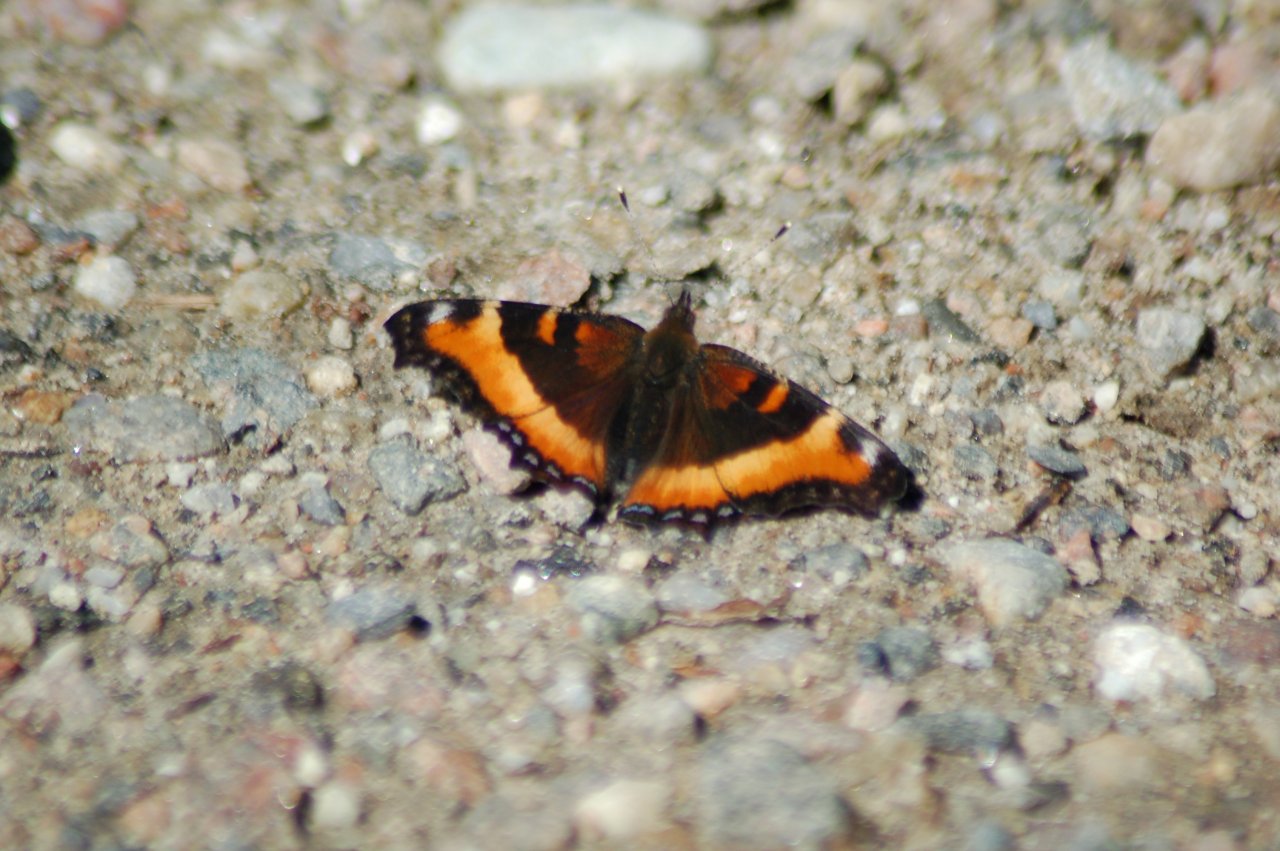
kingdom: Animalia
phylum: Arthropoda
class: Insecta
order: Lepidoptera
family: Nymphalidae
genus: Aglais
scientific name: Aglais milberti
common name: Milbert's Tortoiseshell
